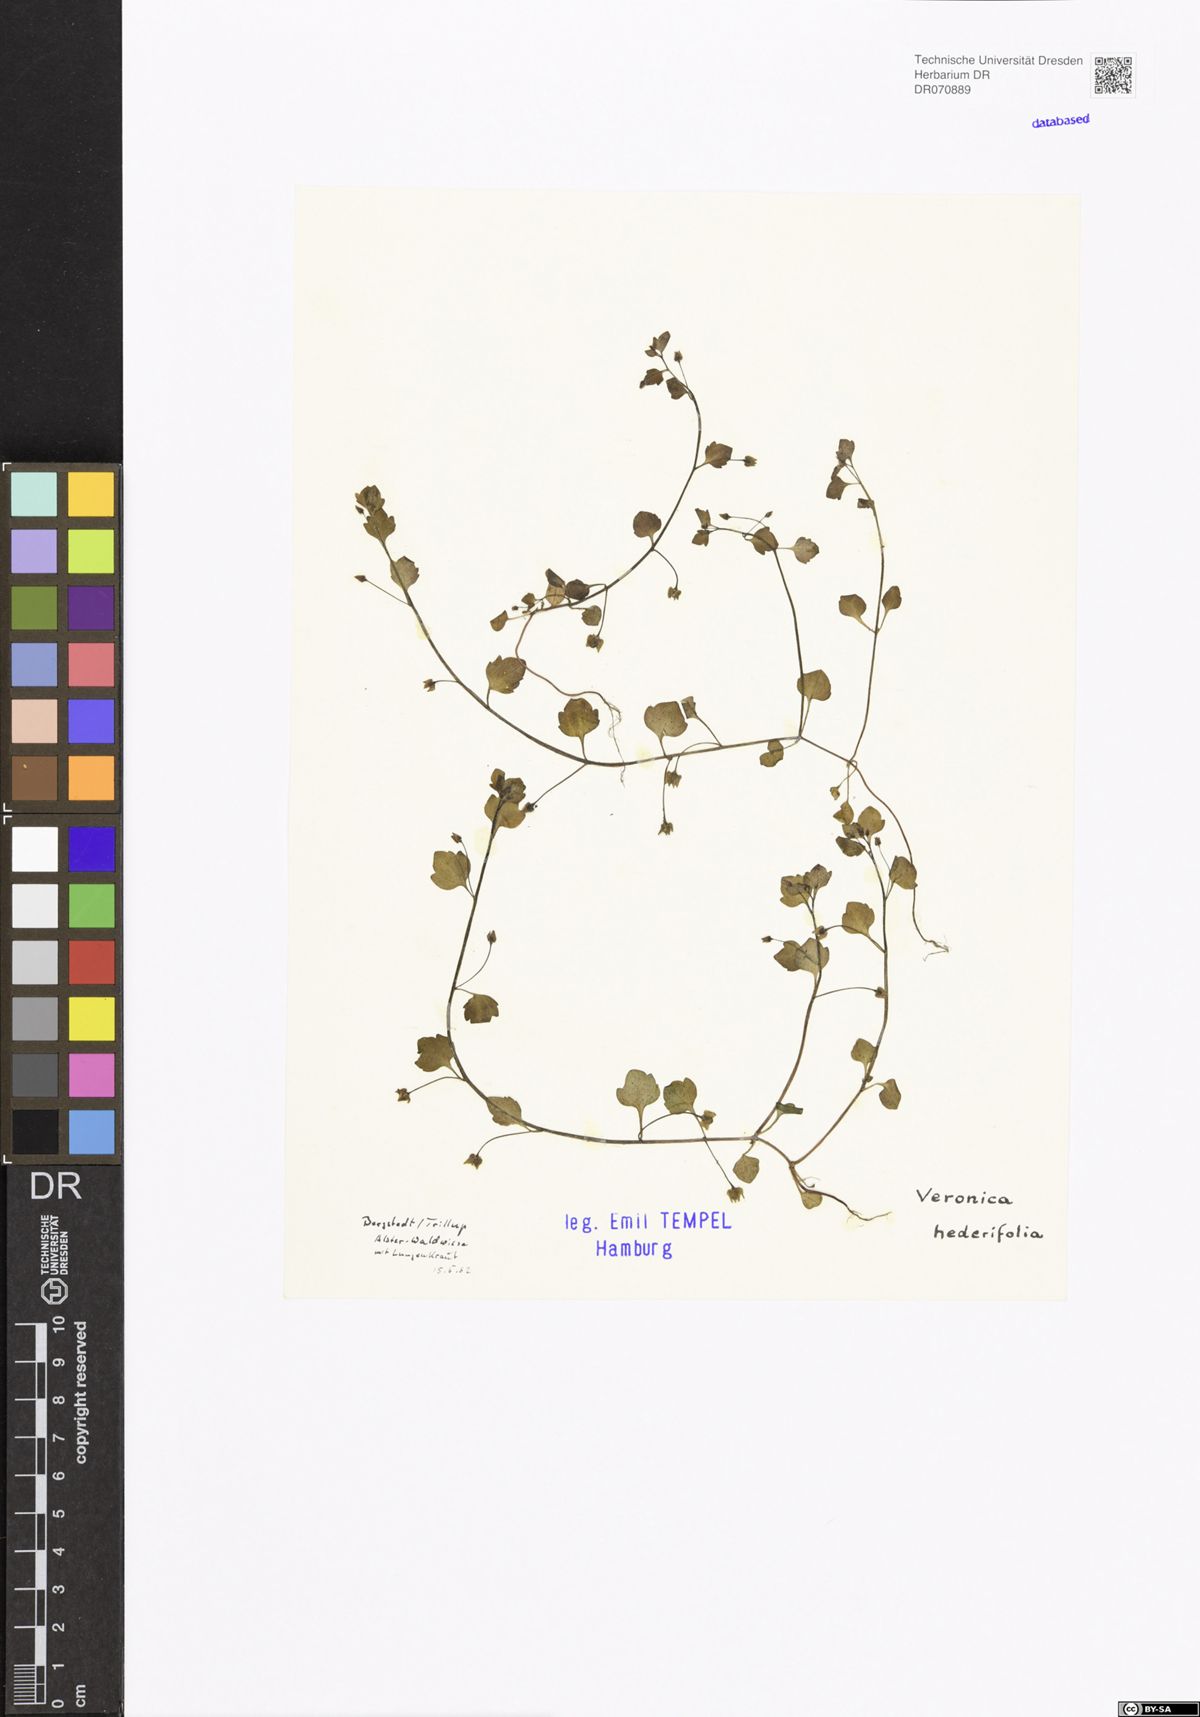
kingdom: Plantae
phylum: Tracheophyta
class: Magnoliopsida
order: Lamiales
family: Plantaginaceae
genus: Veronica
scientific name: Veronica hederifolia
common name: Ivy-leaved speedwell
